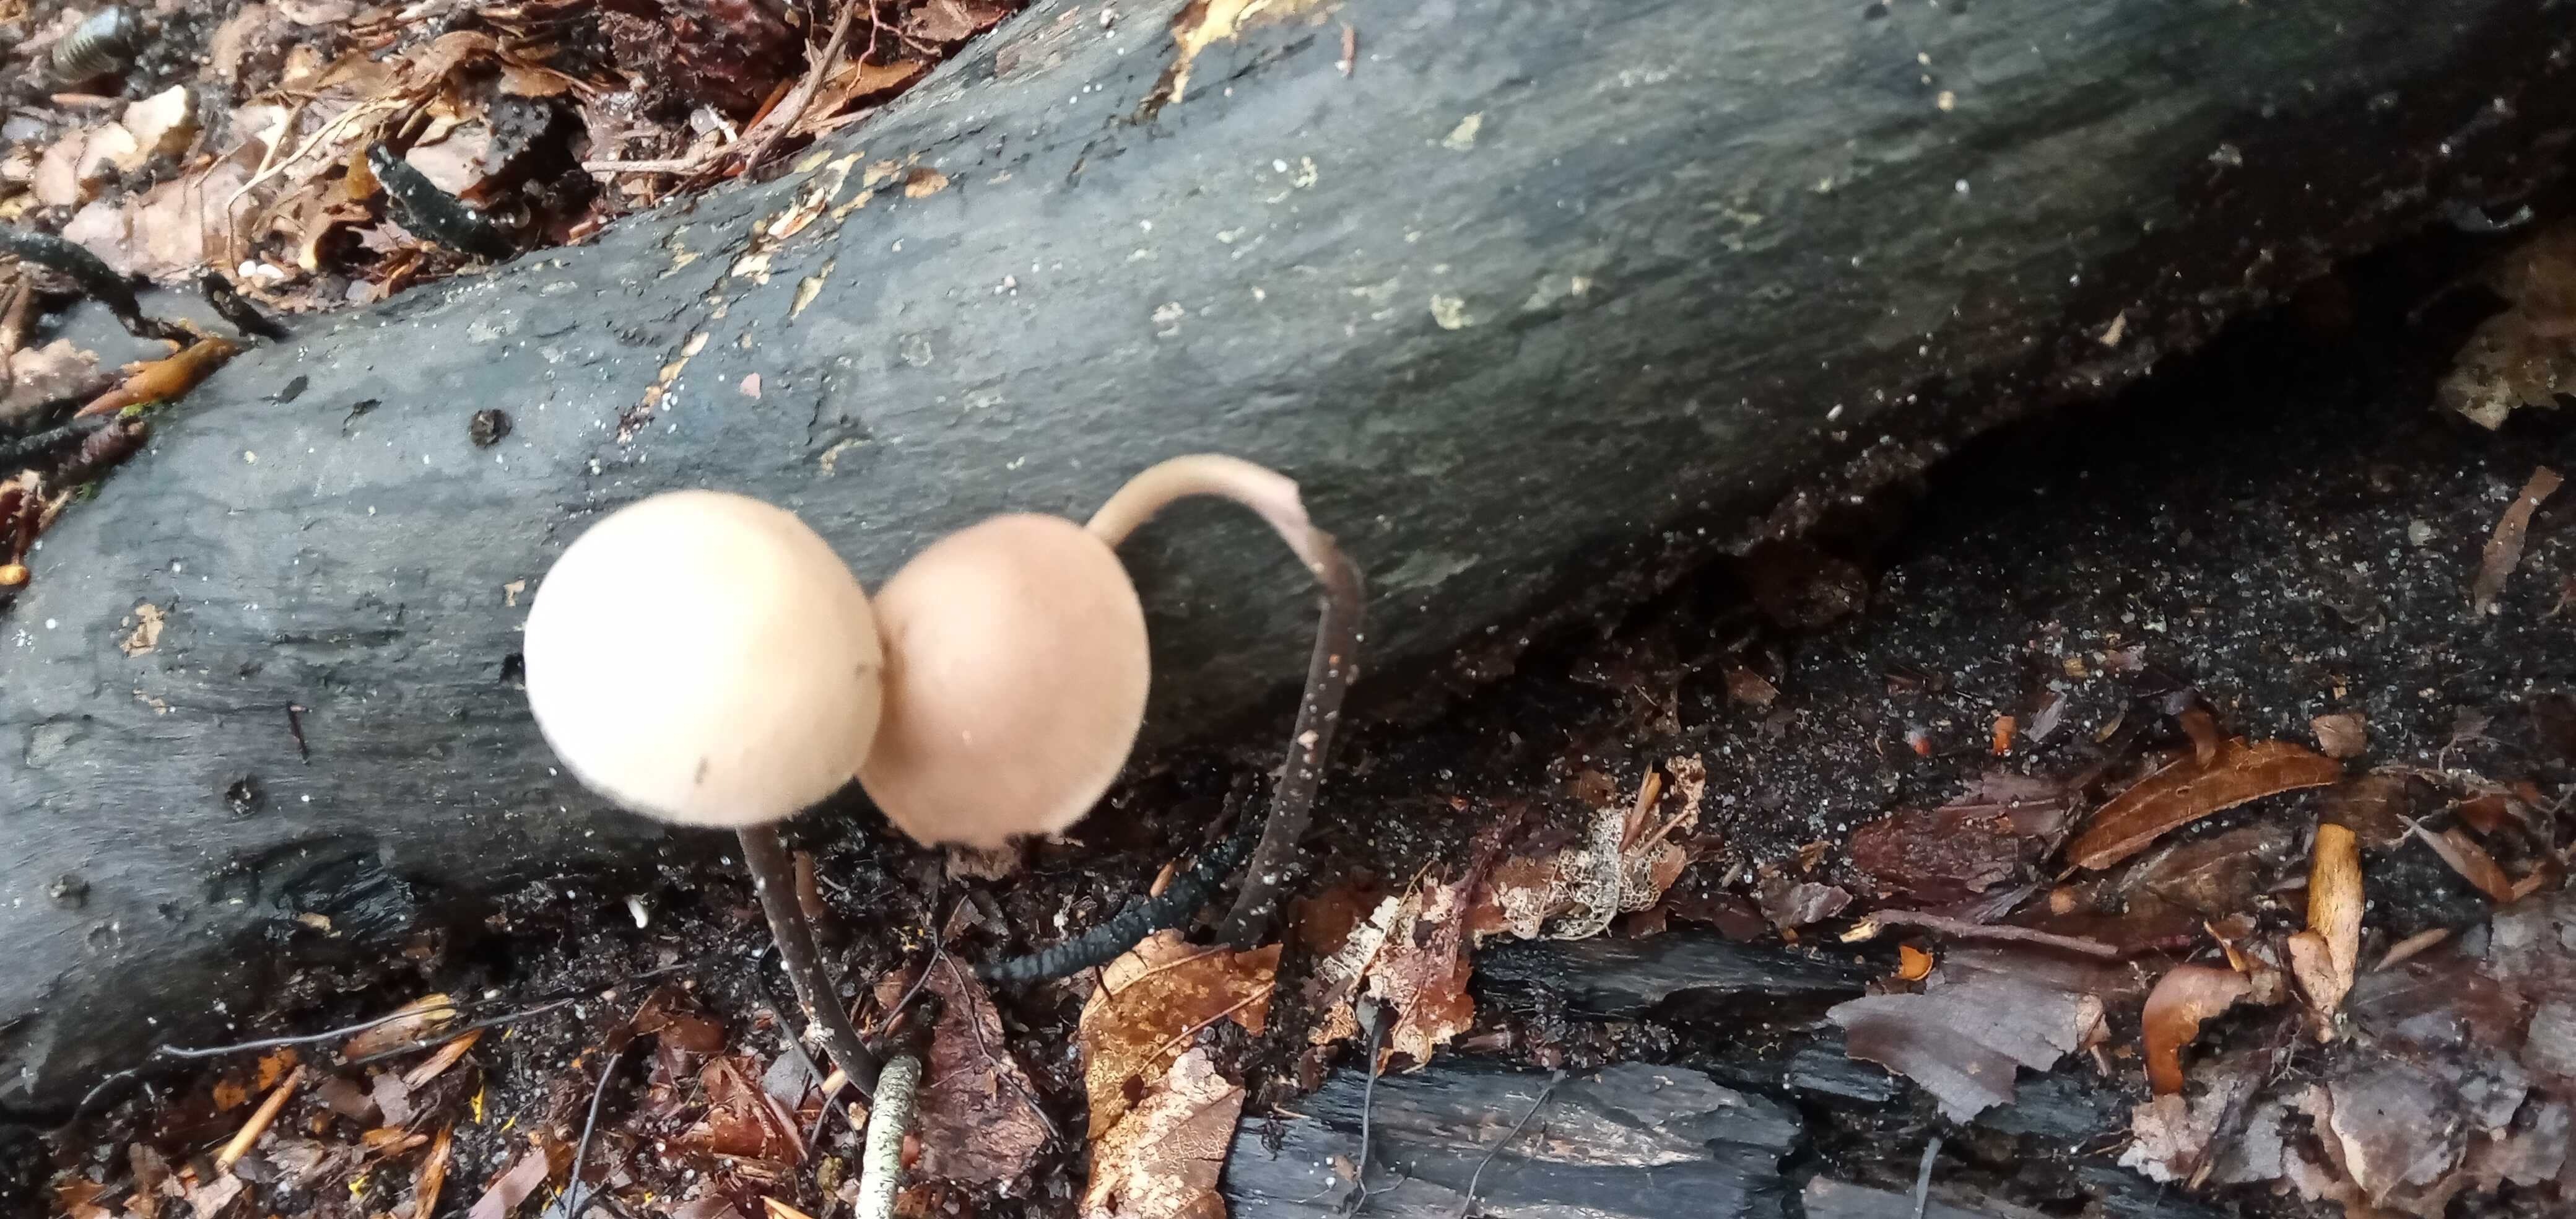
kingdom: Fungi
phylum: Basidiomycota
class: Agaricomycetes
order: Agaricales
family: Omphalotaceae
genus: Mycetinis
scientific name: Mycetinis alliaceus
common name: stor løghat
